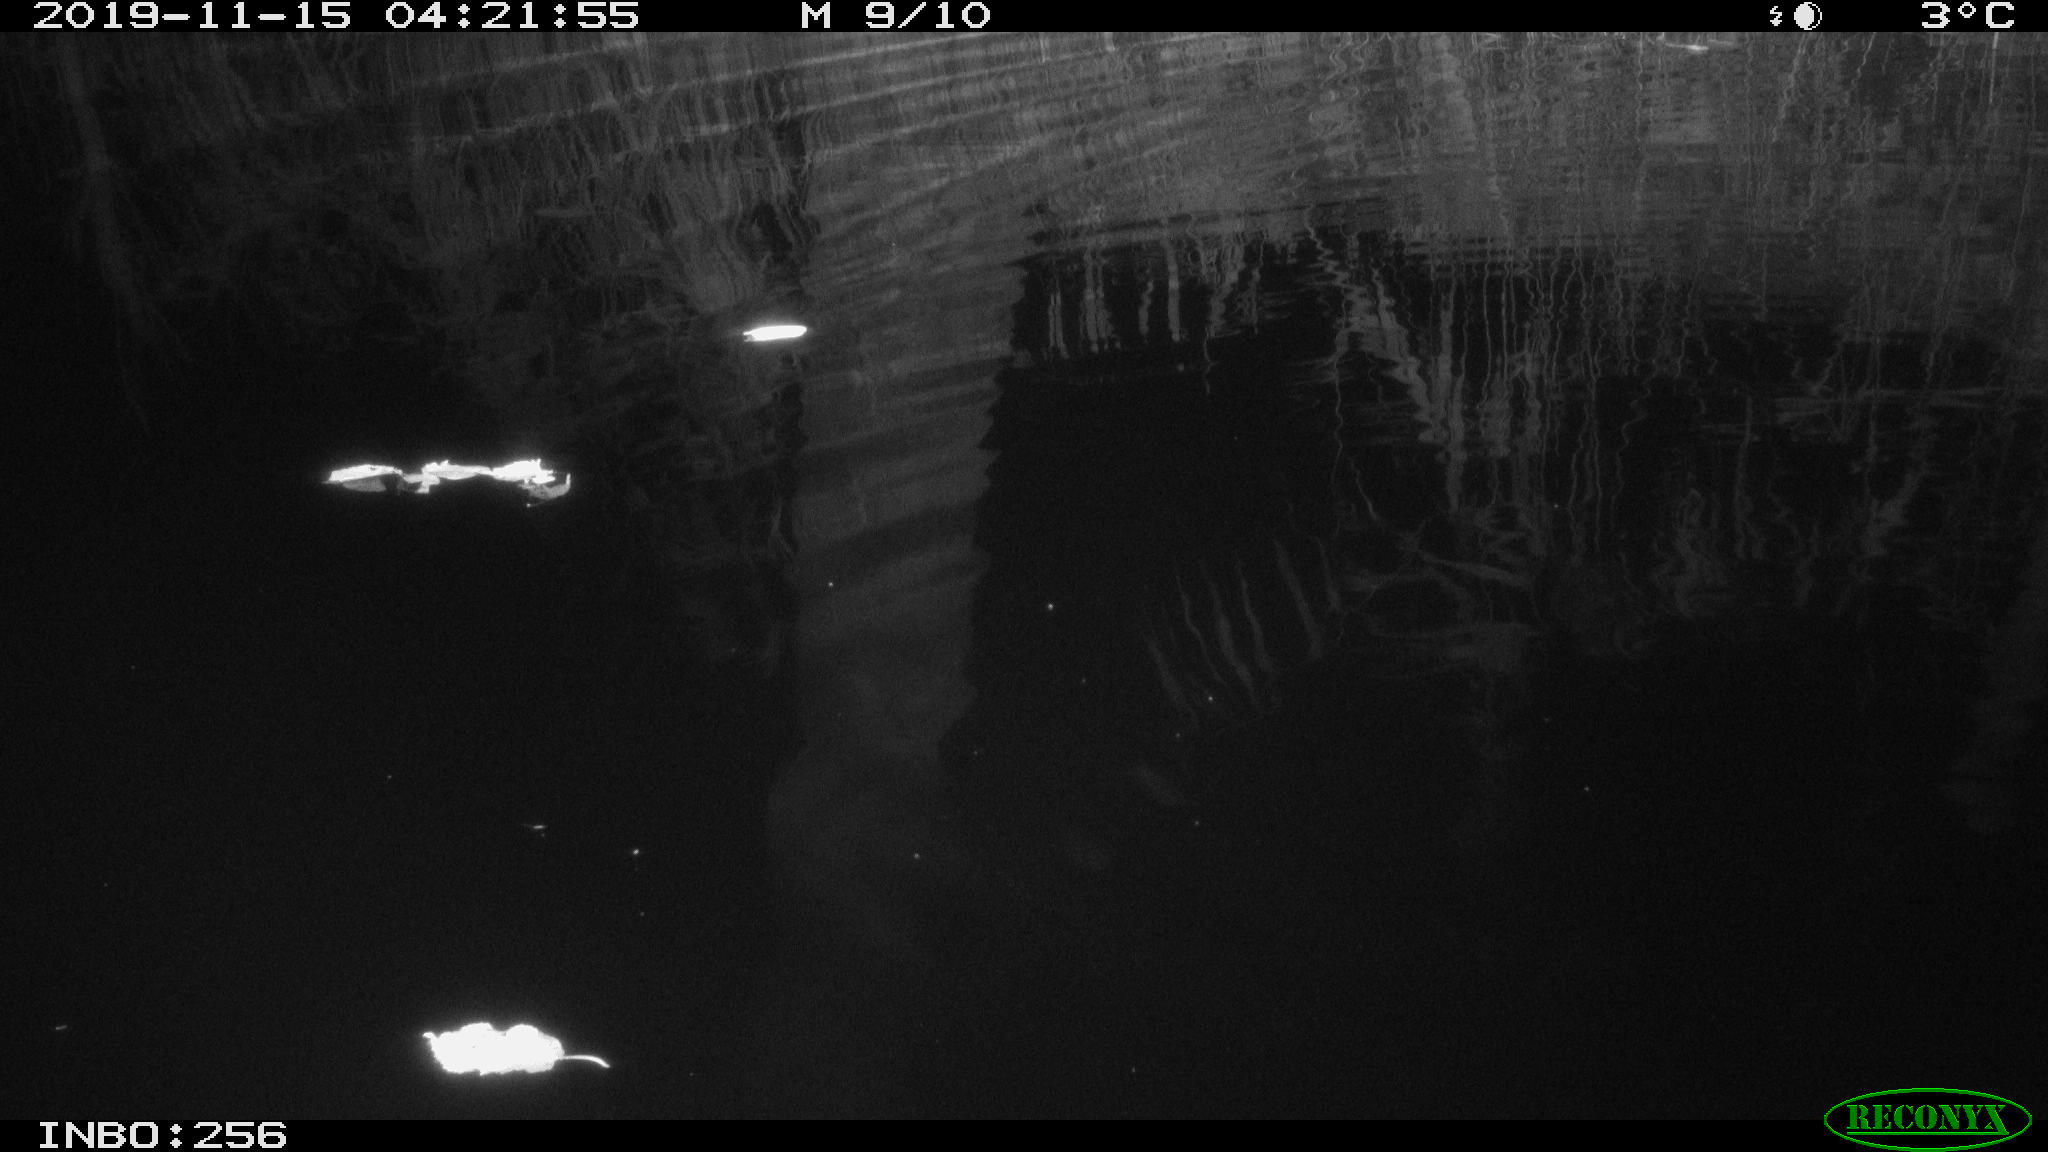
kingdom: Animalia
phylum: Chordata
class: Mammalia
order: Rodentia
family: Muridae
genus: Rattus
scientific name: Rattus norvegicus
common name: Brown rat
